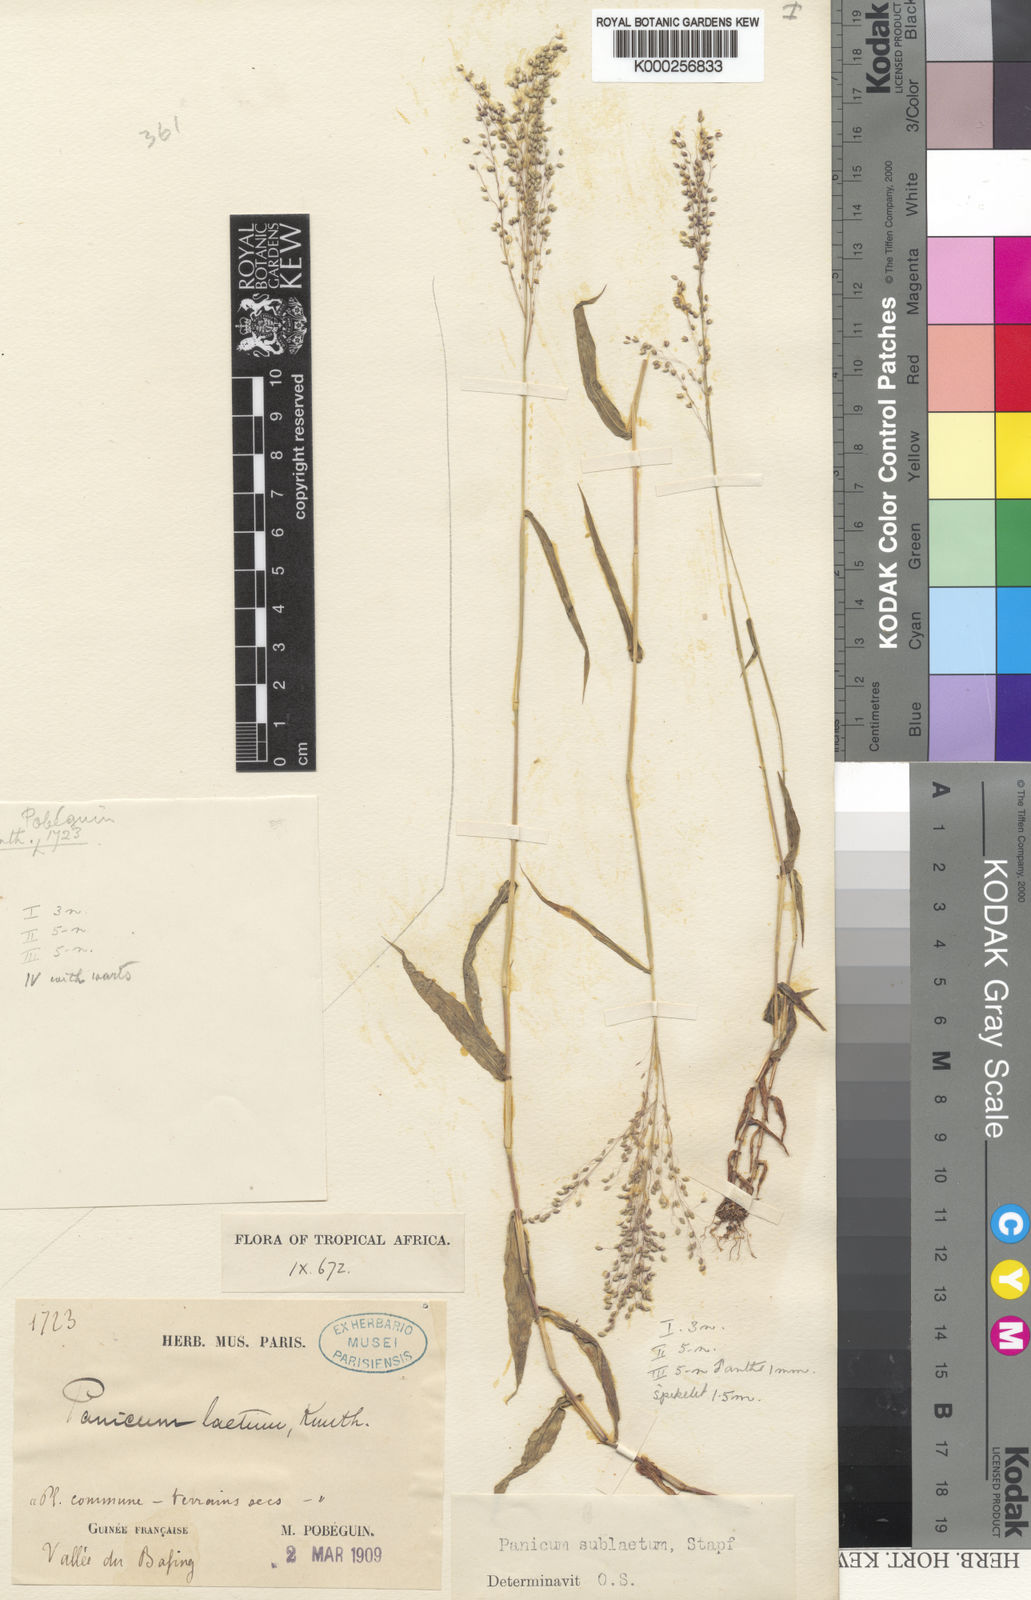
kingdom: Plantae
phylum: Tracheophyta
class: Liliopsida
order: Poales
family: Poaceae
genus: Trichanthecium
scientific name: Trichanthecium gracilicaule
